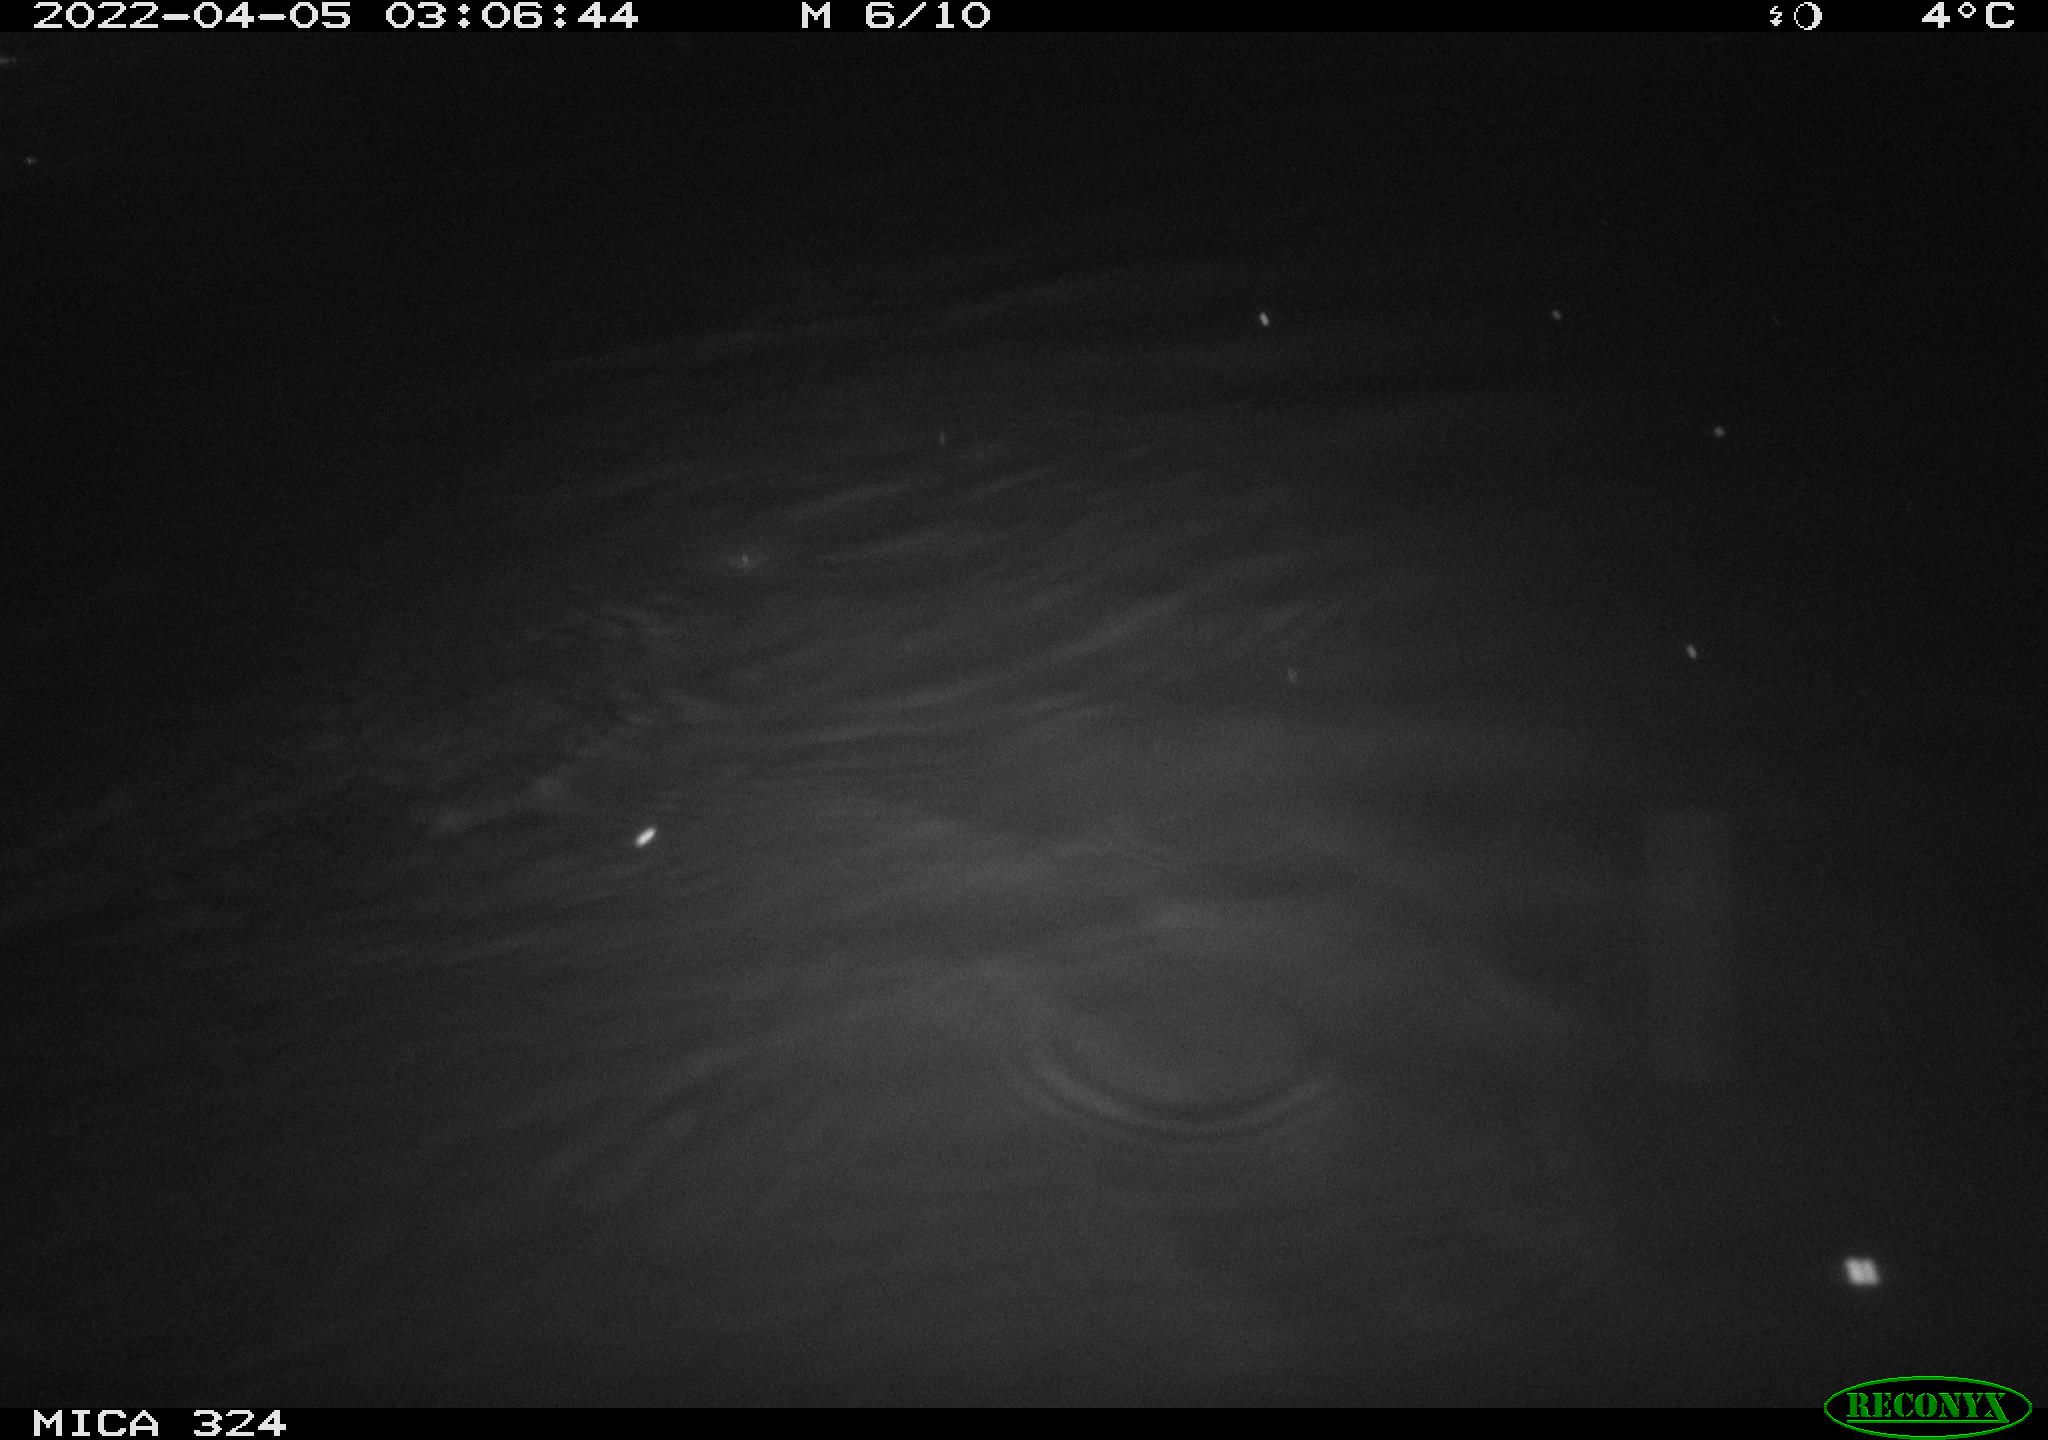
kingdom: Animalia
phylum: Chordata
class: Mammalia
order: Rodentia
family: Cricetidae
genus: Ondatra
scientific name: Ondatra zibethicus
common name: Muskrat
